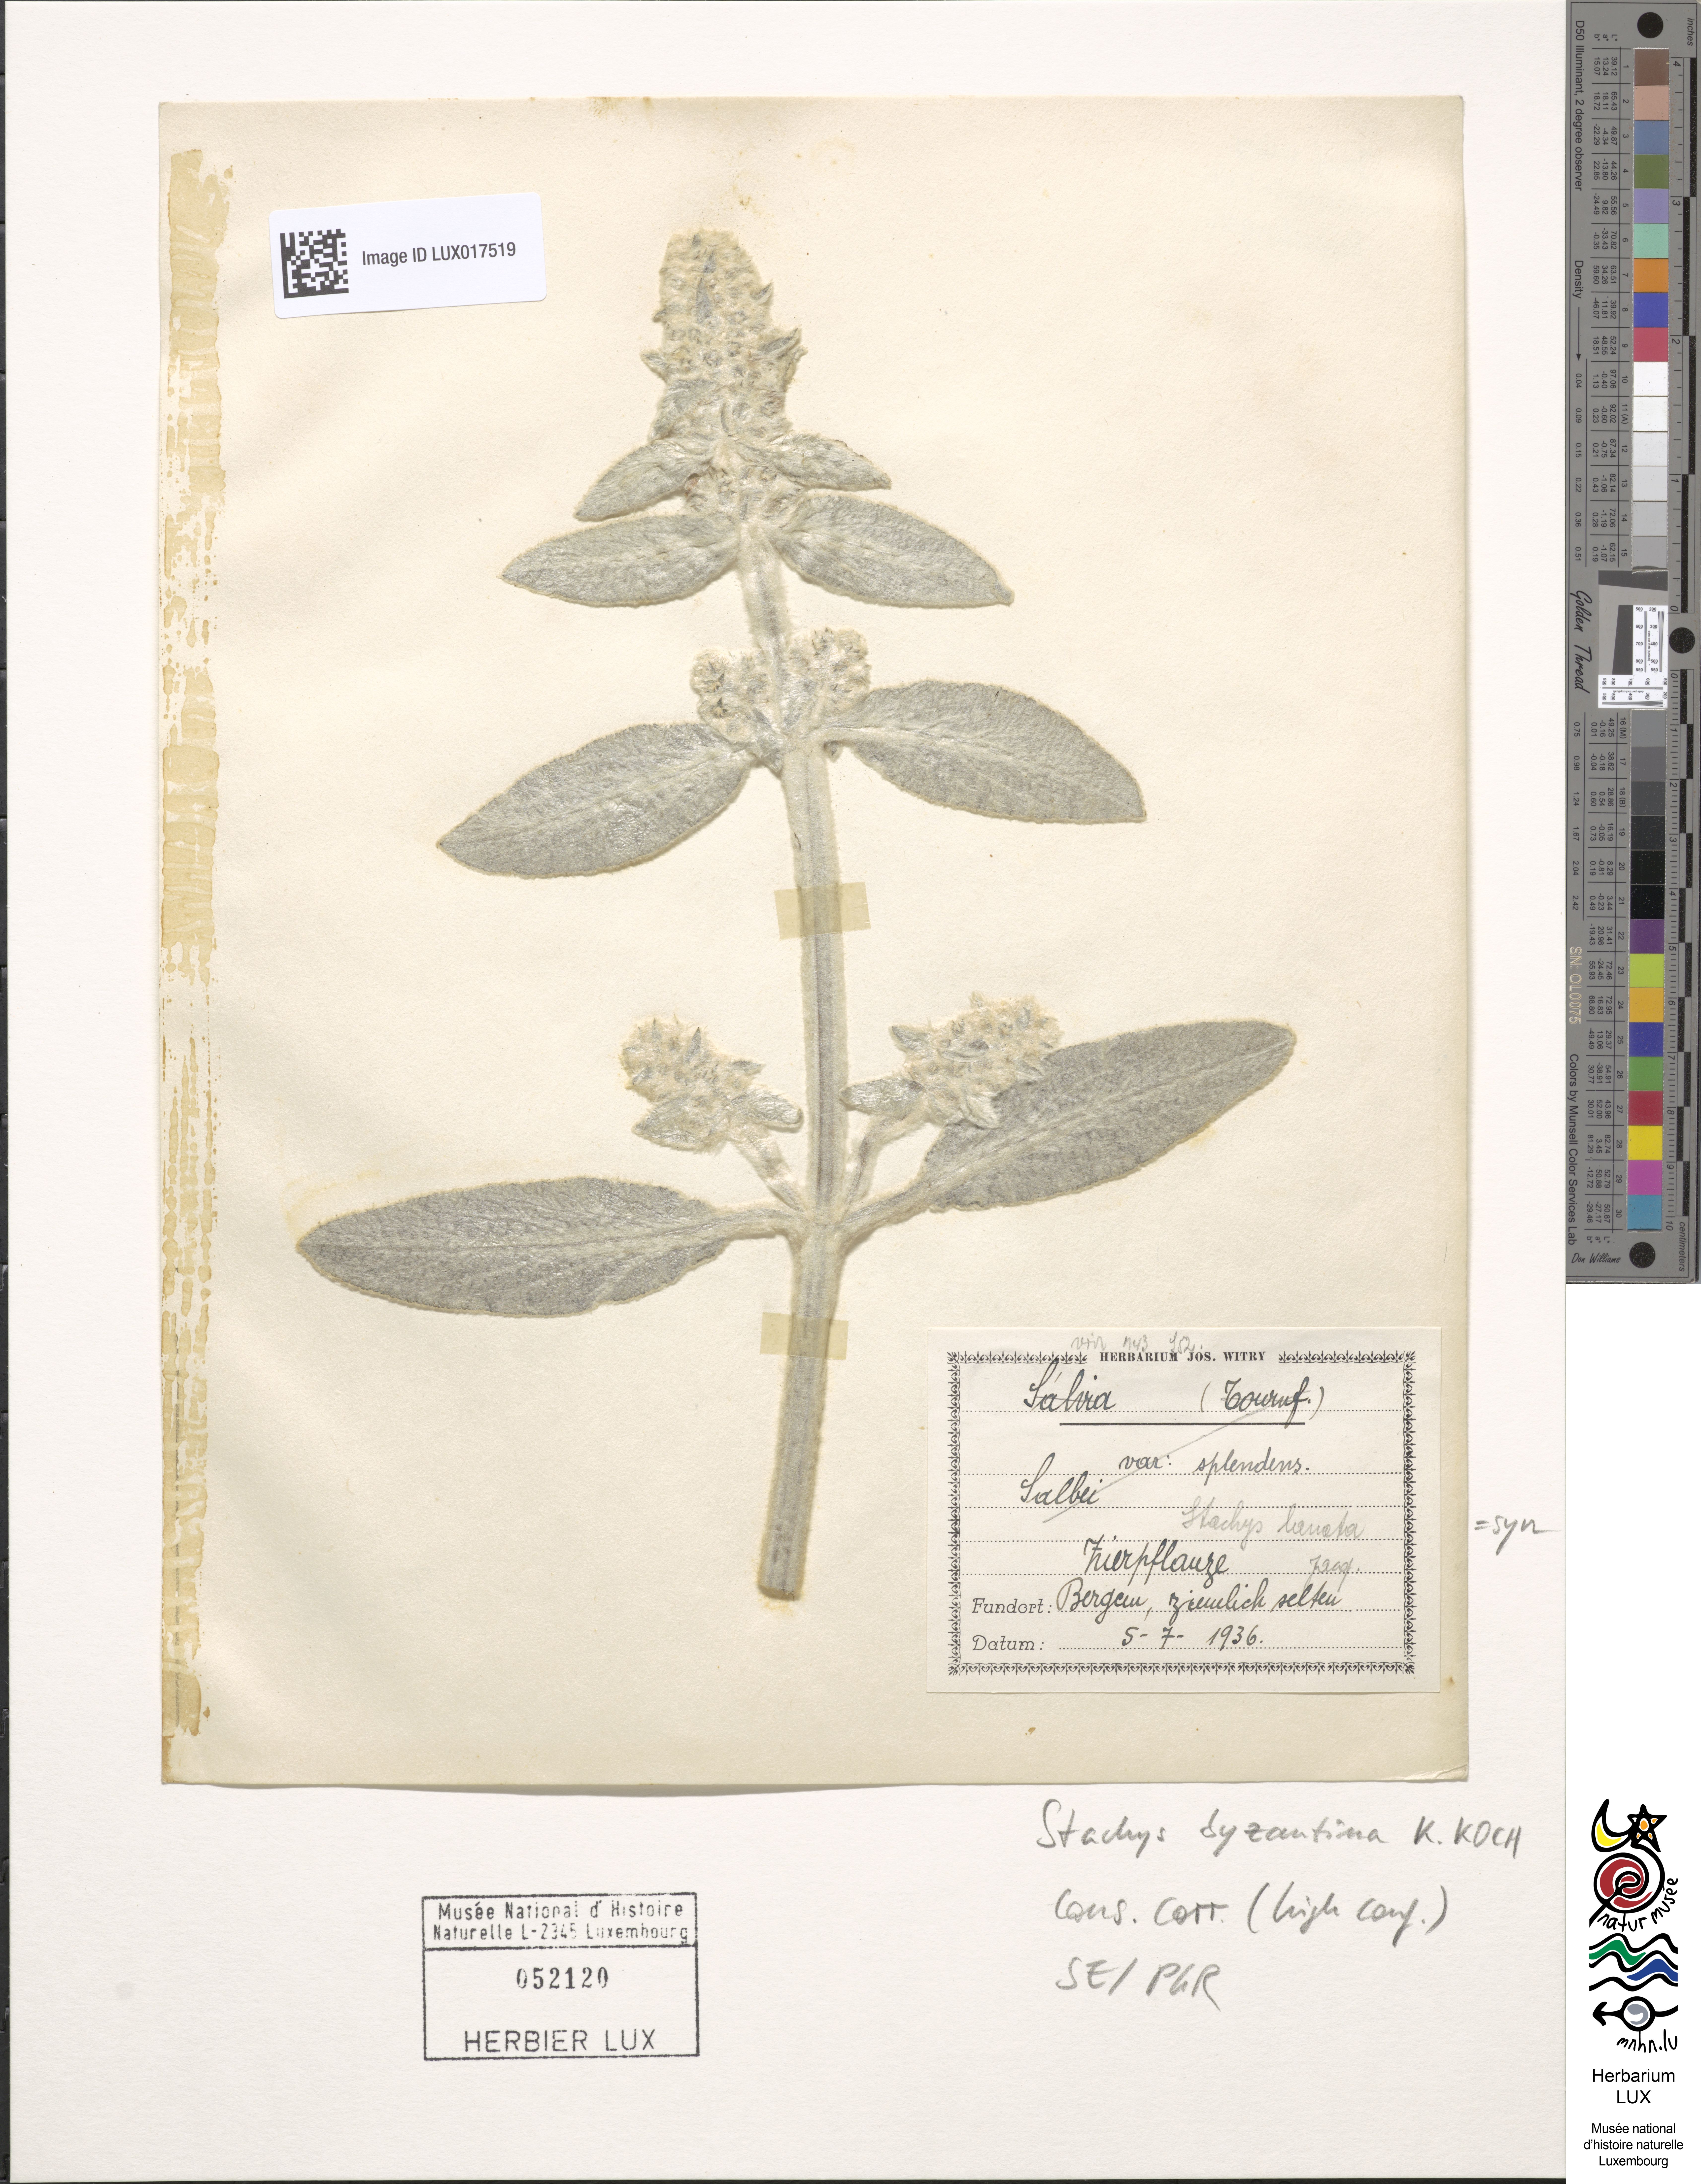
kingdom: Plantae
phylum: Tracheophyta
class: Magnoliopsida
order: Lamiales
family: Lamiaceae
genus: Stachys
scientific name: Stachys byzantina
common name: Lamb's-ear
